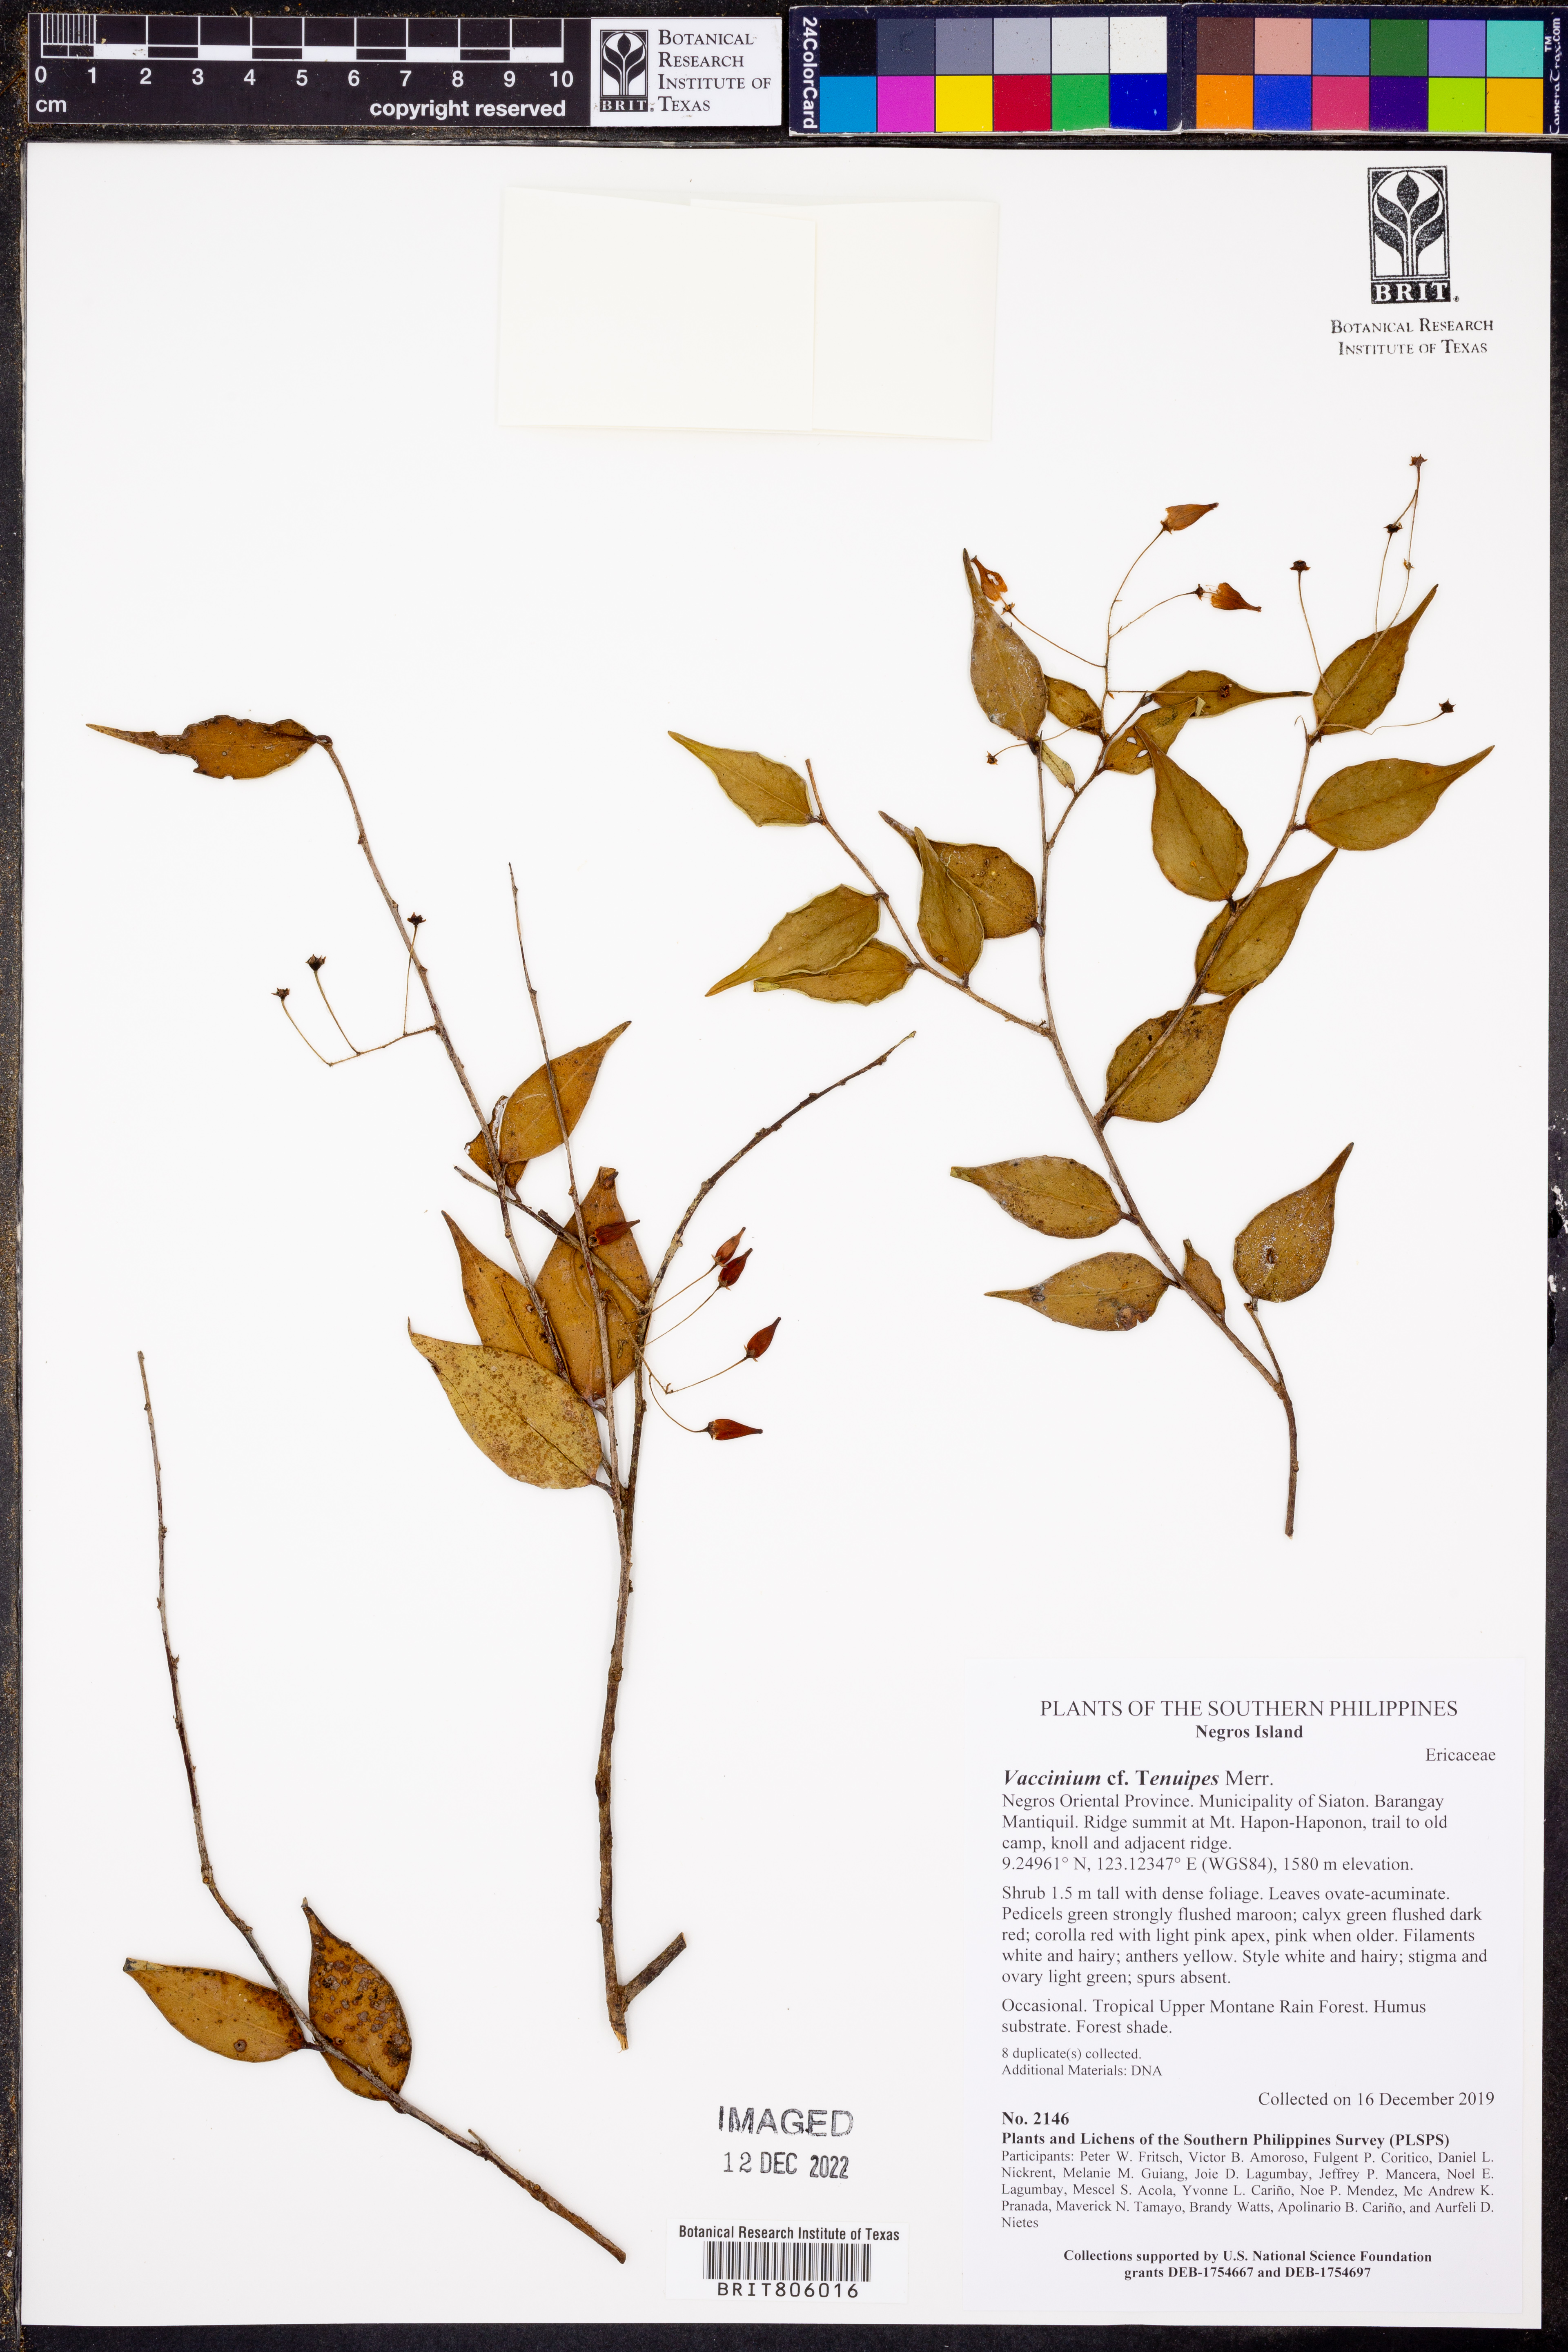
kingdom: Plantae
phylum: Tracheophyta
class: Magnoliopsida
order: Ericales
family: Ericaceae
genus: Vaccinium
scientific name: Vaccinium tenuipes
